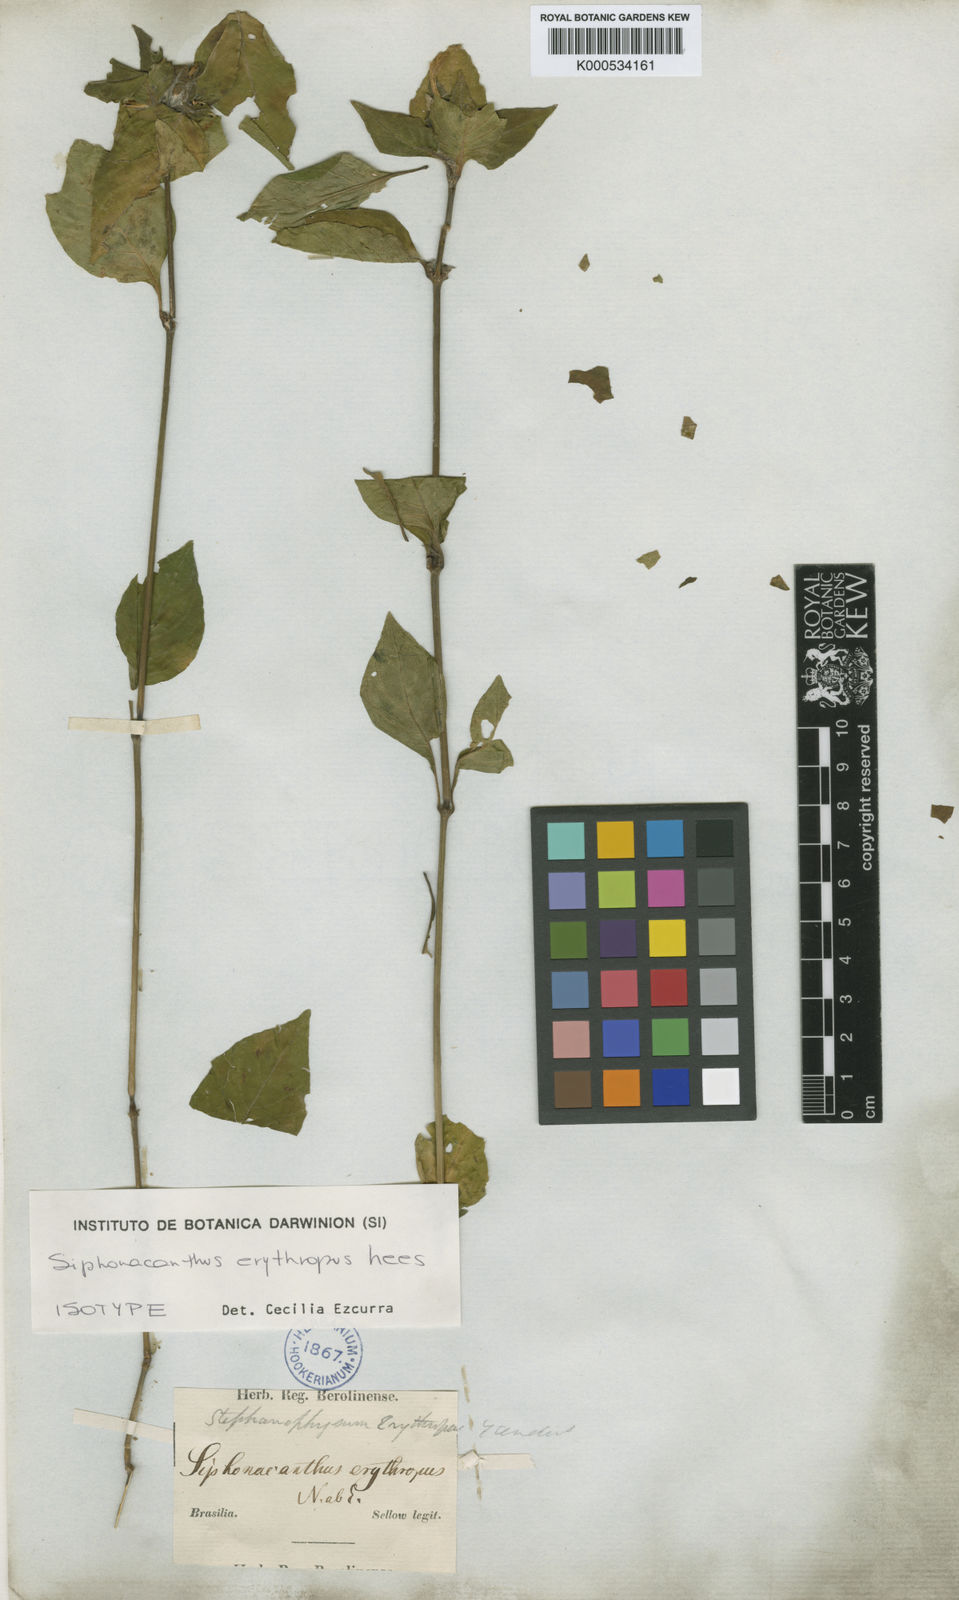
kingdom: Plantae
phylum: Tracheophyta
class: Magnoliopsida
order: Lamiales
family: Acanthaceae
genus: Ruellia
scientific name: Ruellia erythropus
